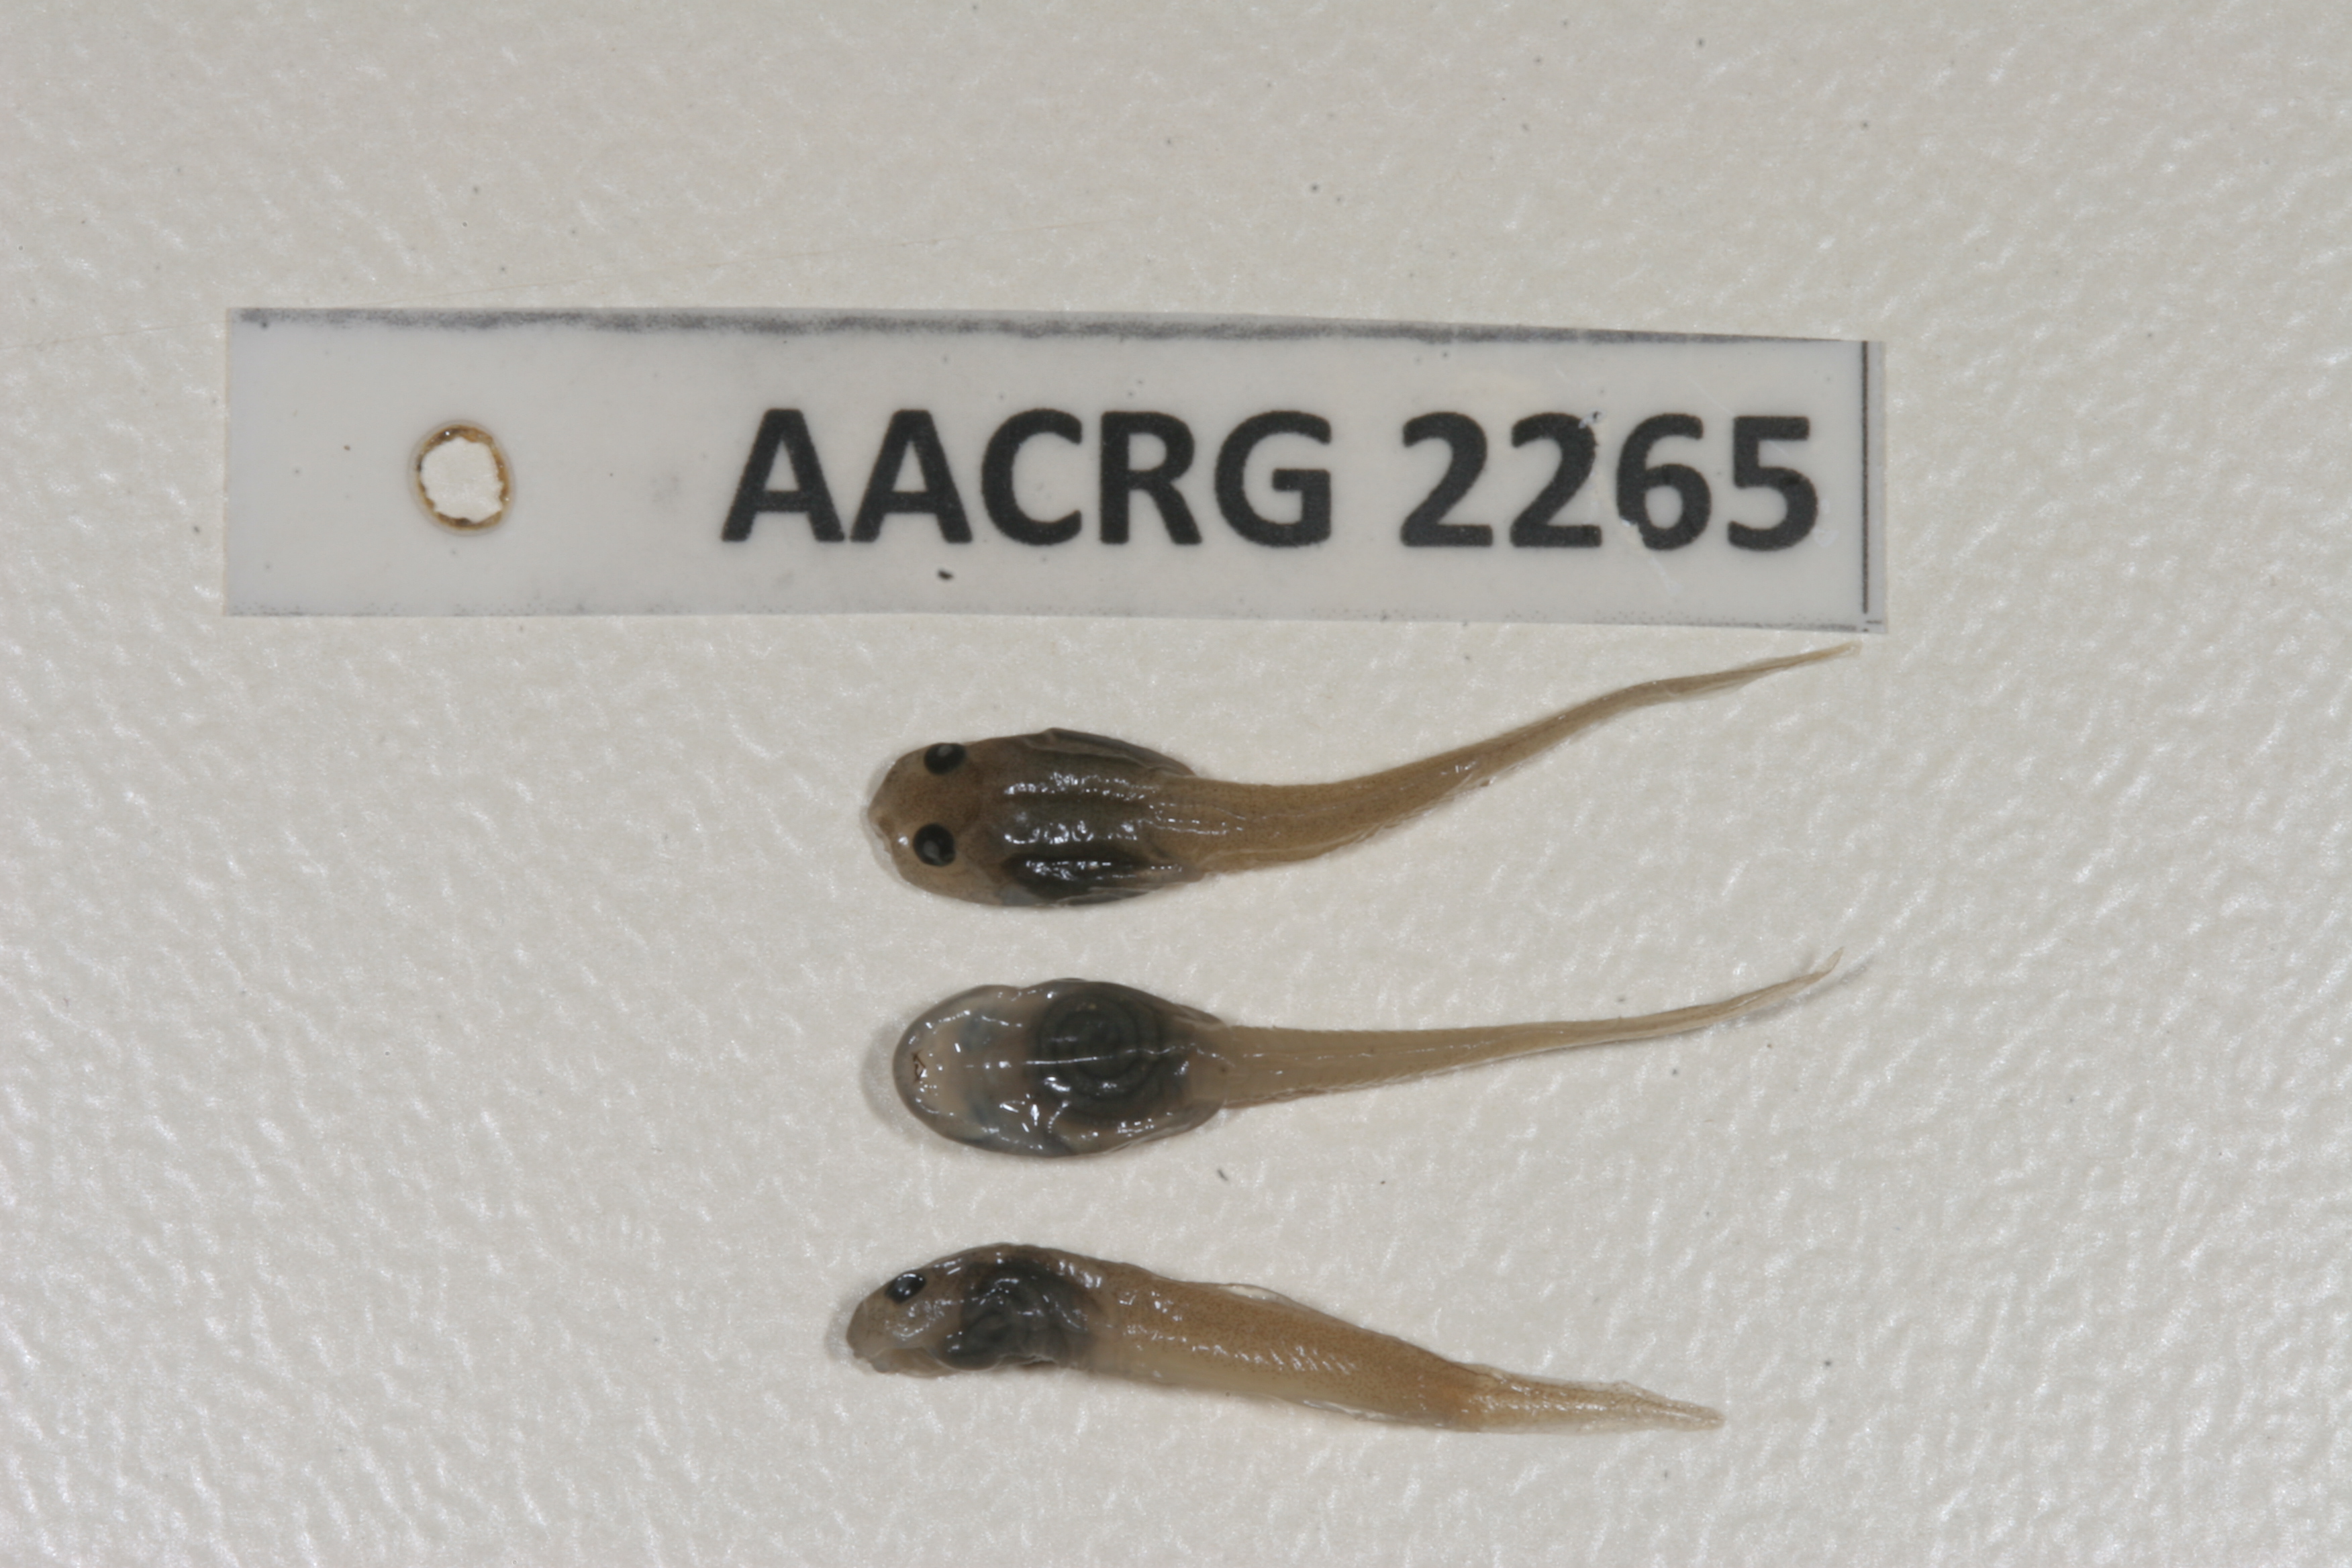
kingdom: Animalia
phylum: Chordata
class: Amphibia
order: Anura
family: Pyxicephalidae
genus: Natalobatrachus
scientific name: Natalobatrachus bonebergi
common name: Natal diving frog
